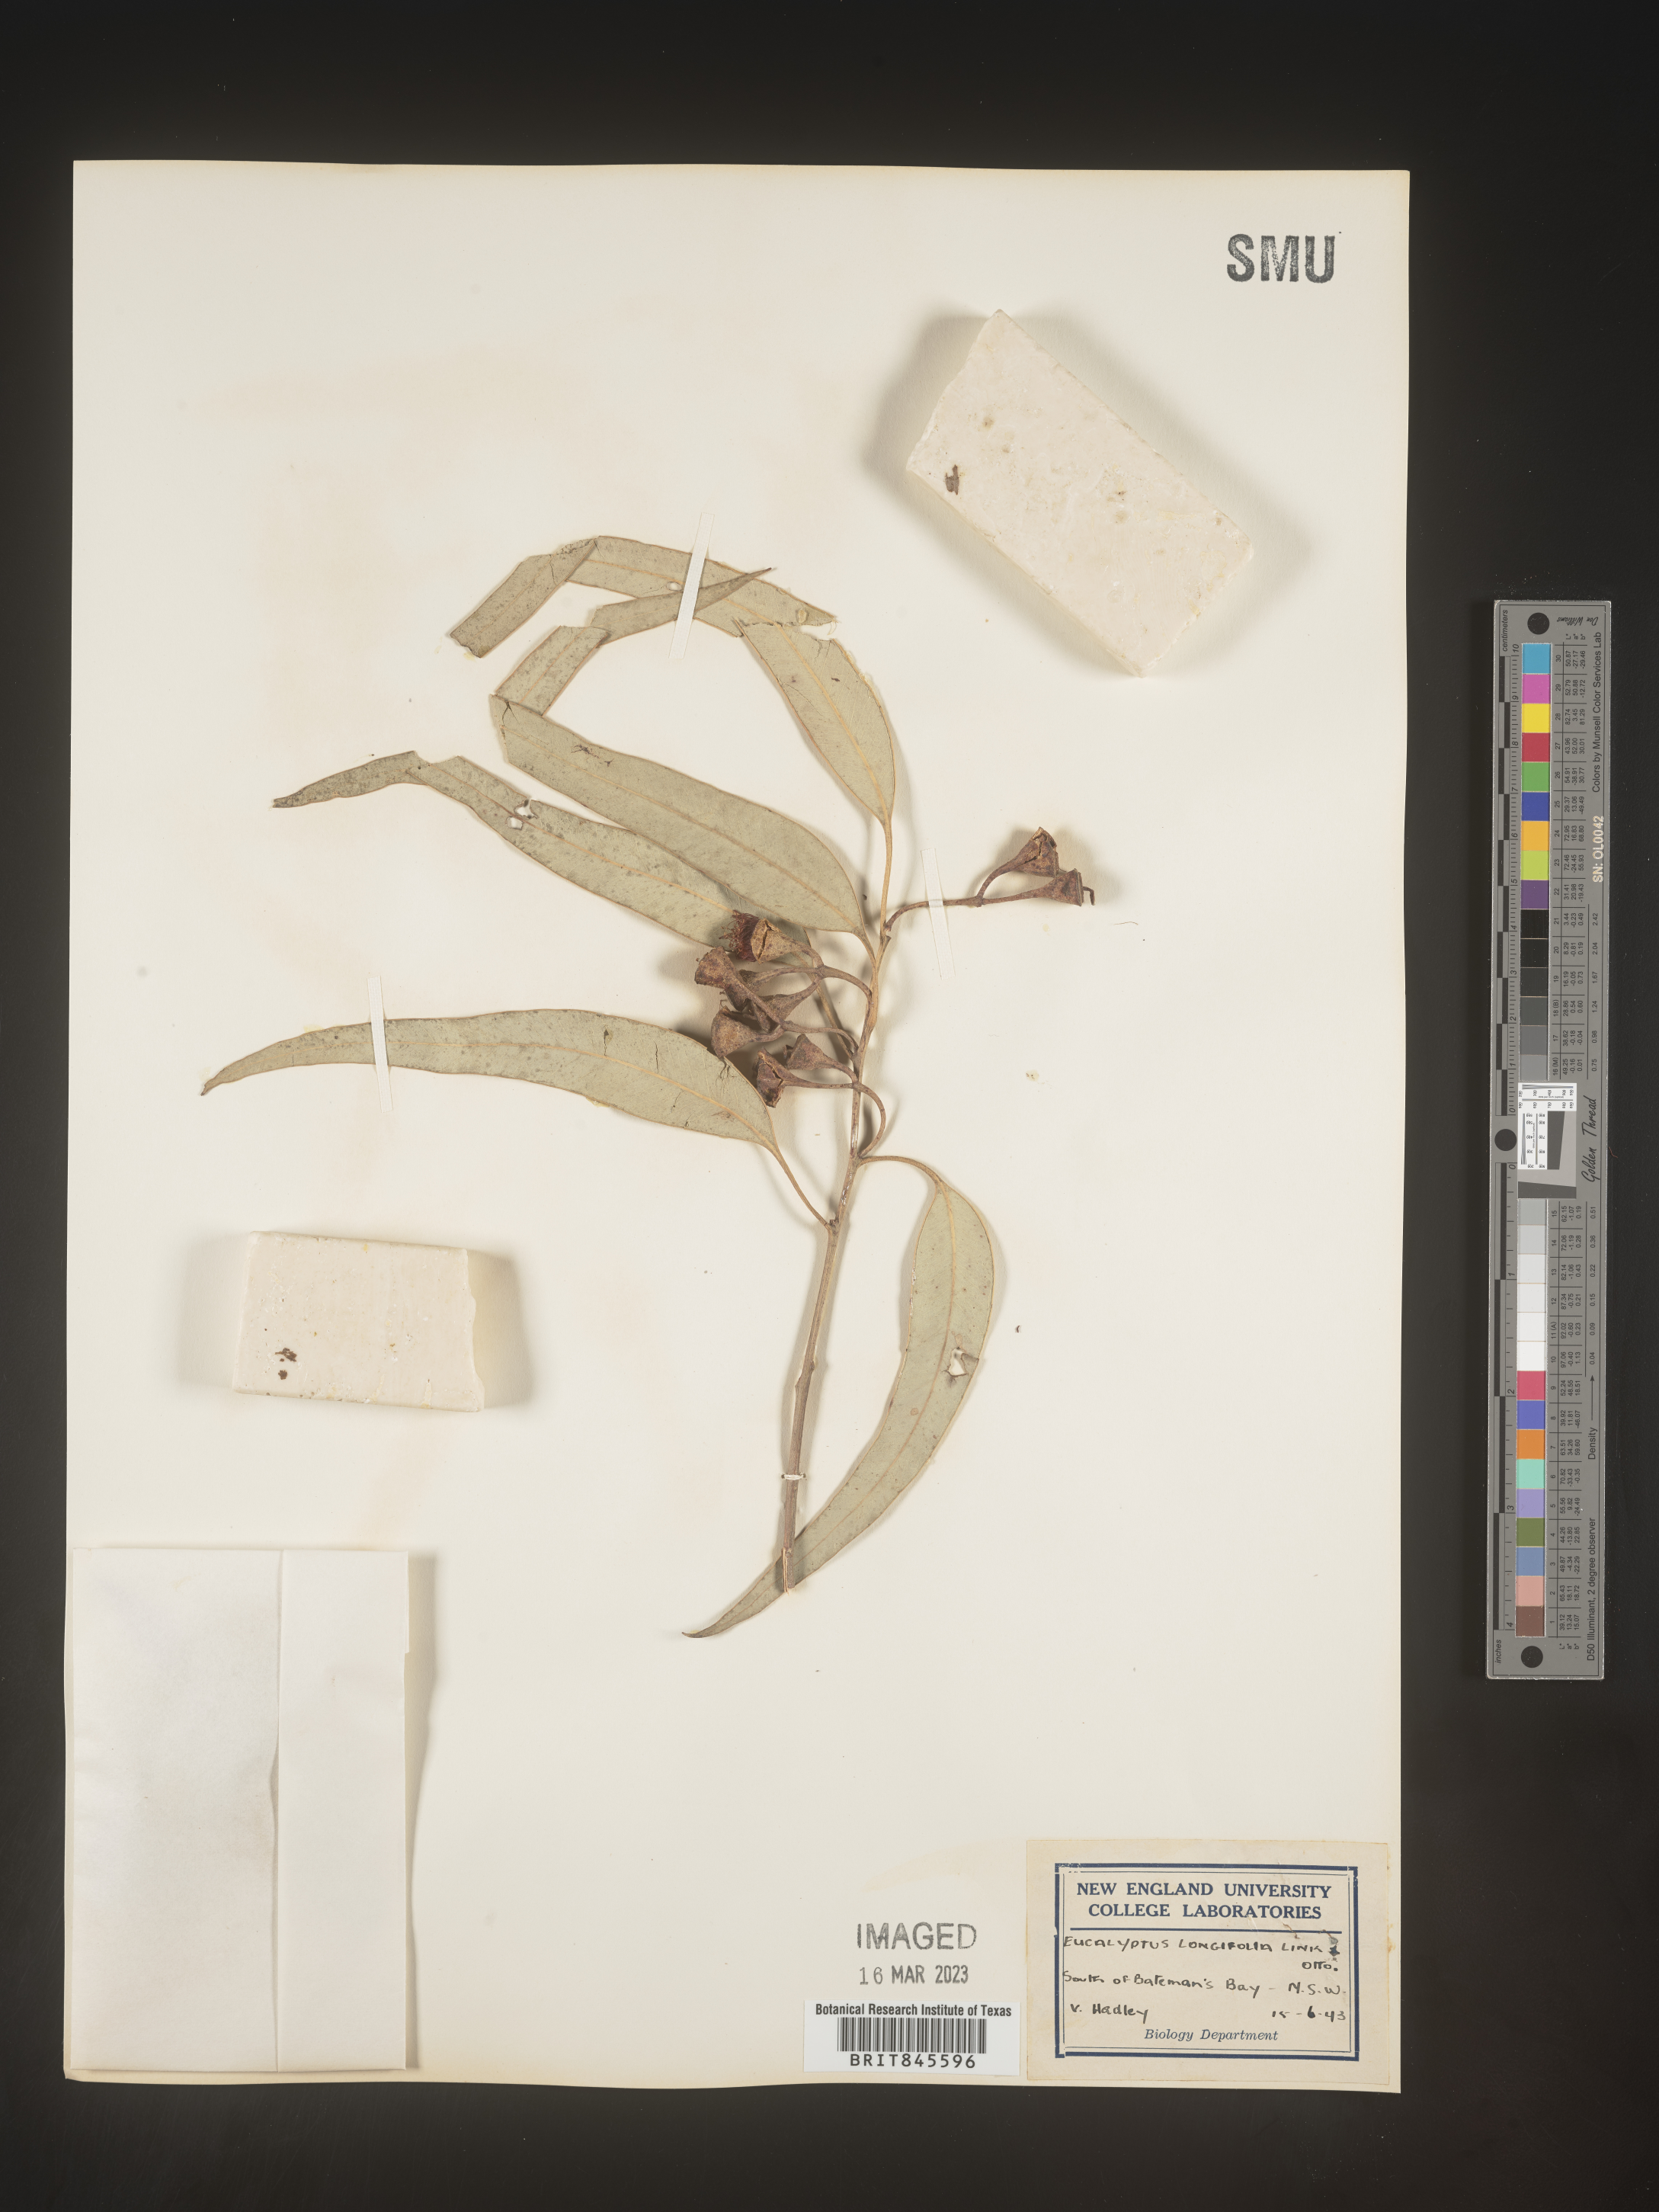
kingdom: Plantae
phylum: Tracheophyta
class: Magnoliopsida
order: Myrtales
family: Myrtaceae
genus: Eucalyptus
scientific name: Eucalyptus
